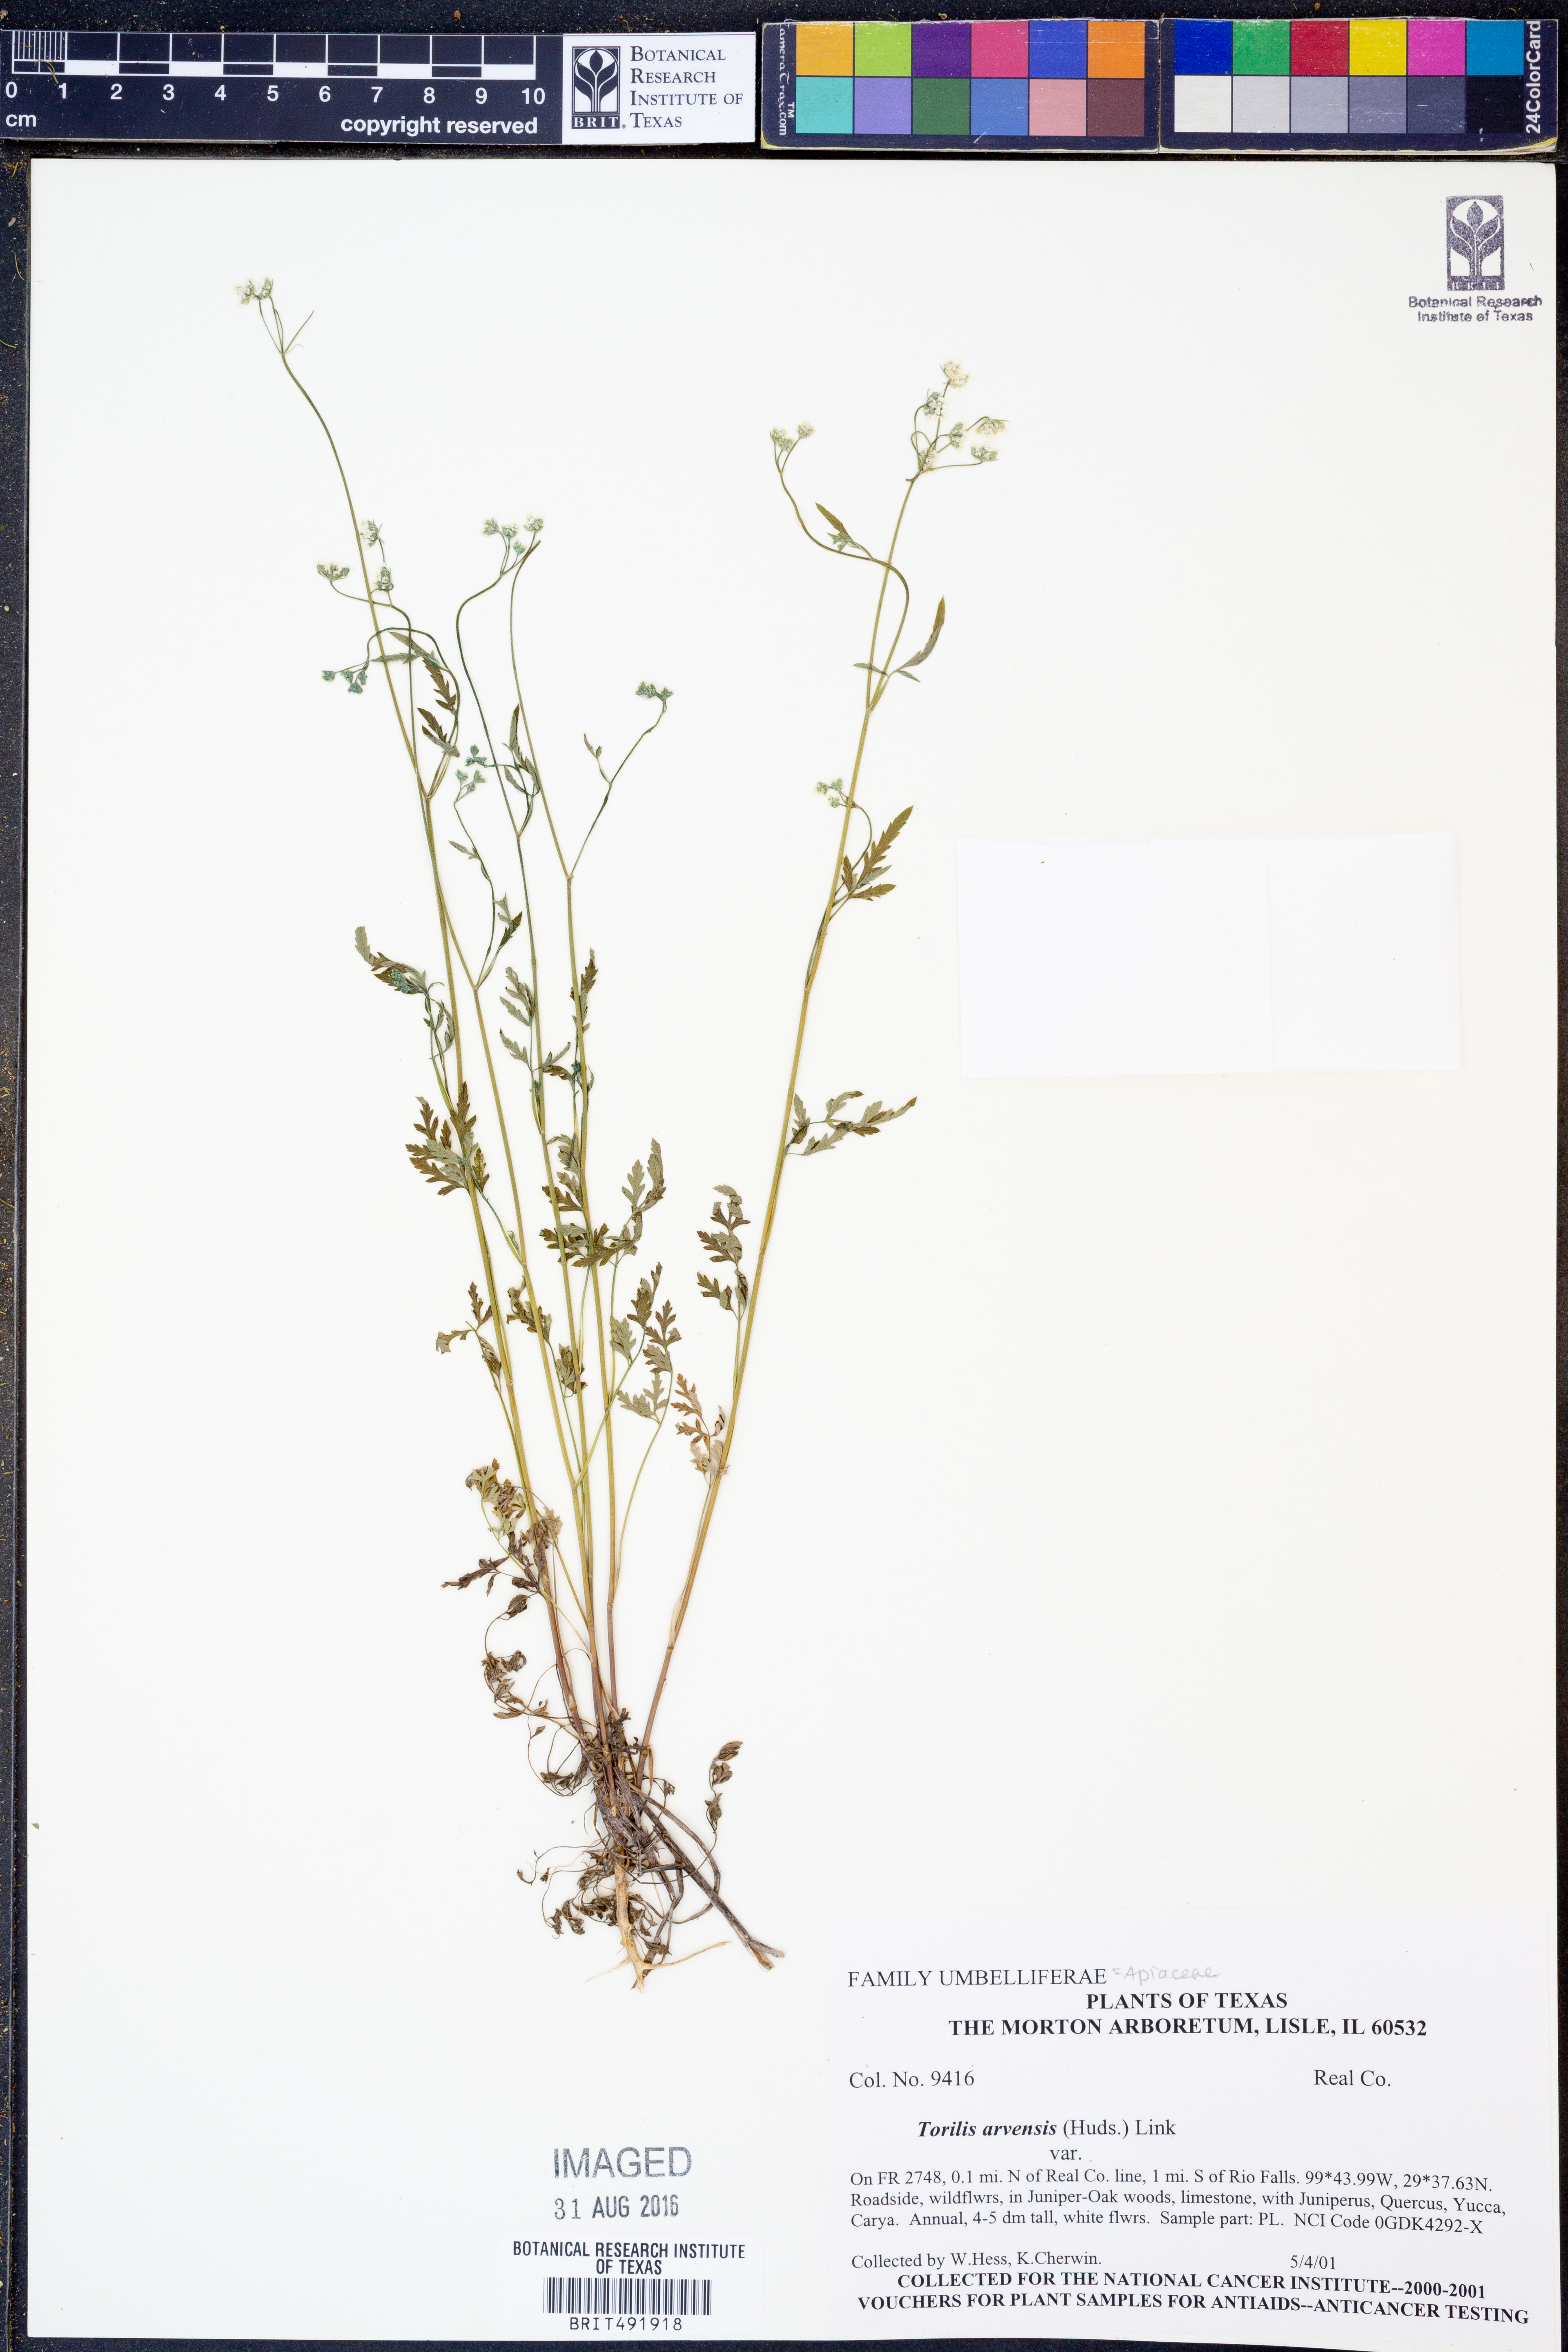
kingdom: Plantae
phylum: Tracheophyta
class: Magnoliopsida
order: Apiales
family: Apiaceae
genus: Torilis
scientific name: Torilis arvensis
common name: Spreading hedge-parsley
